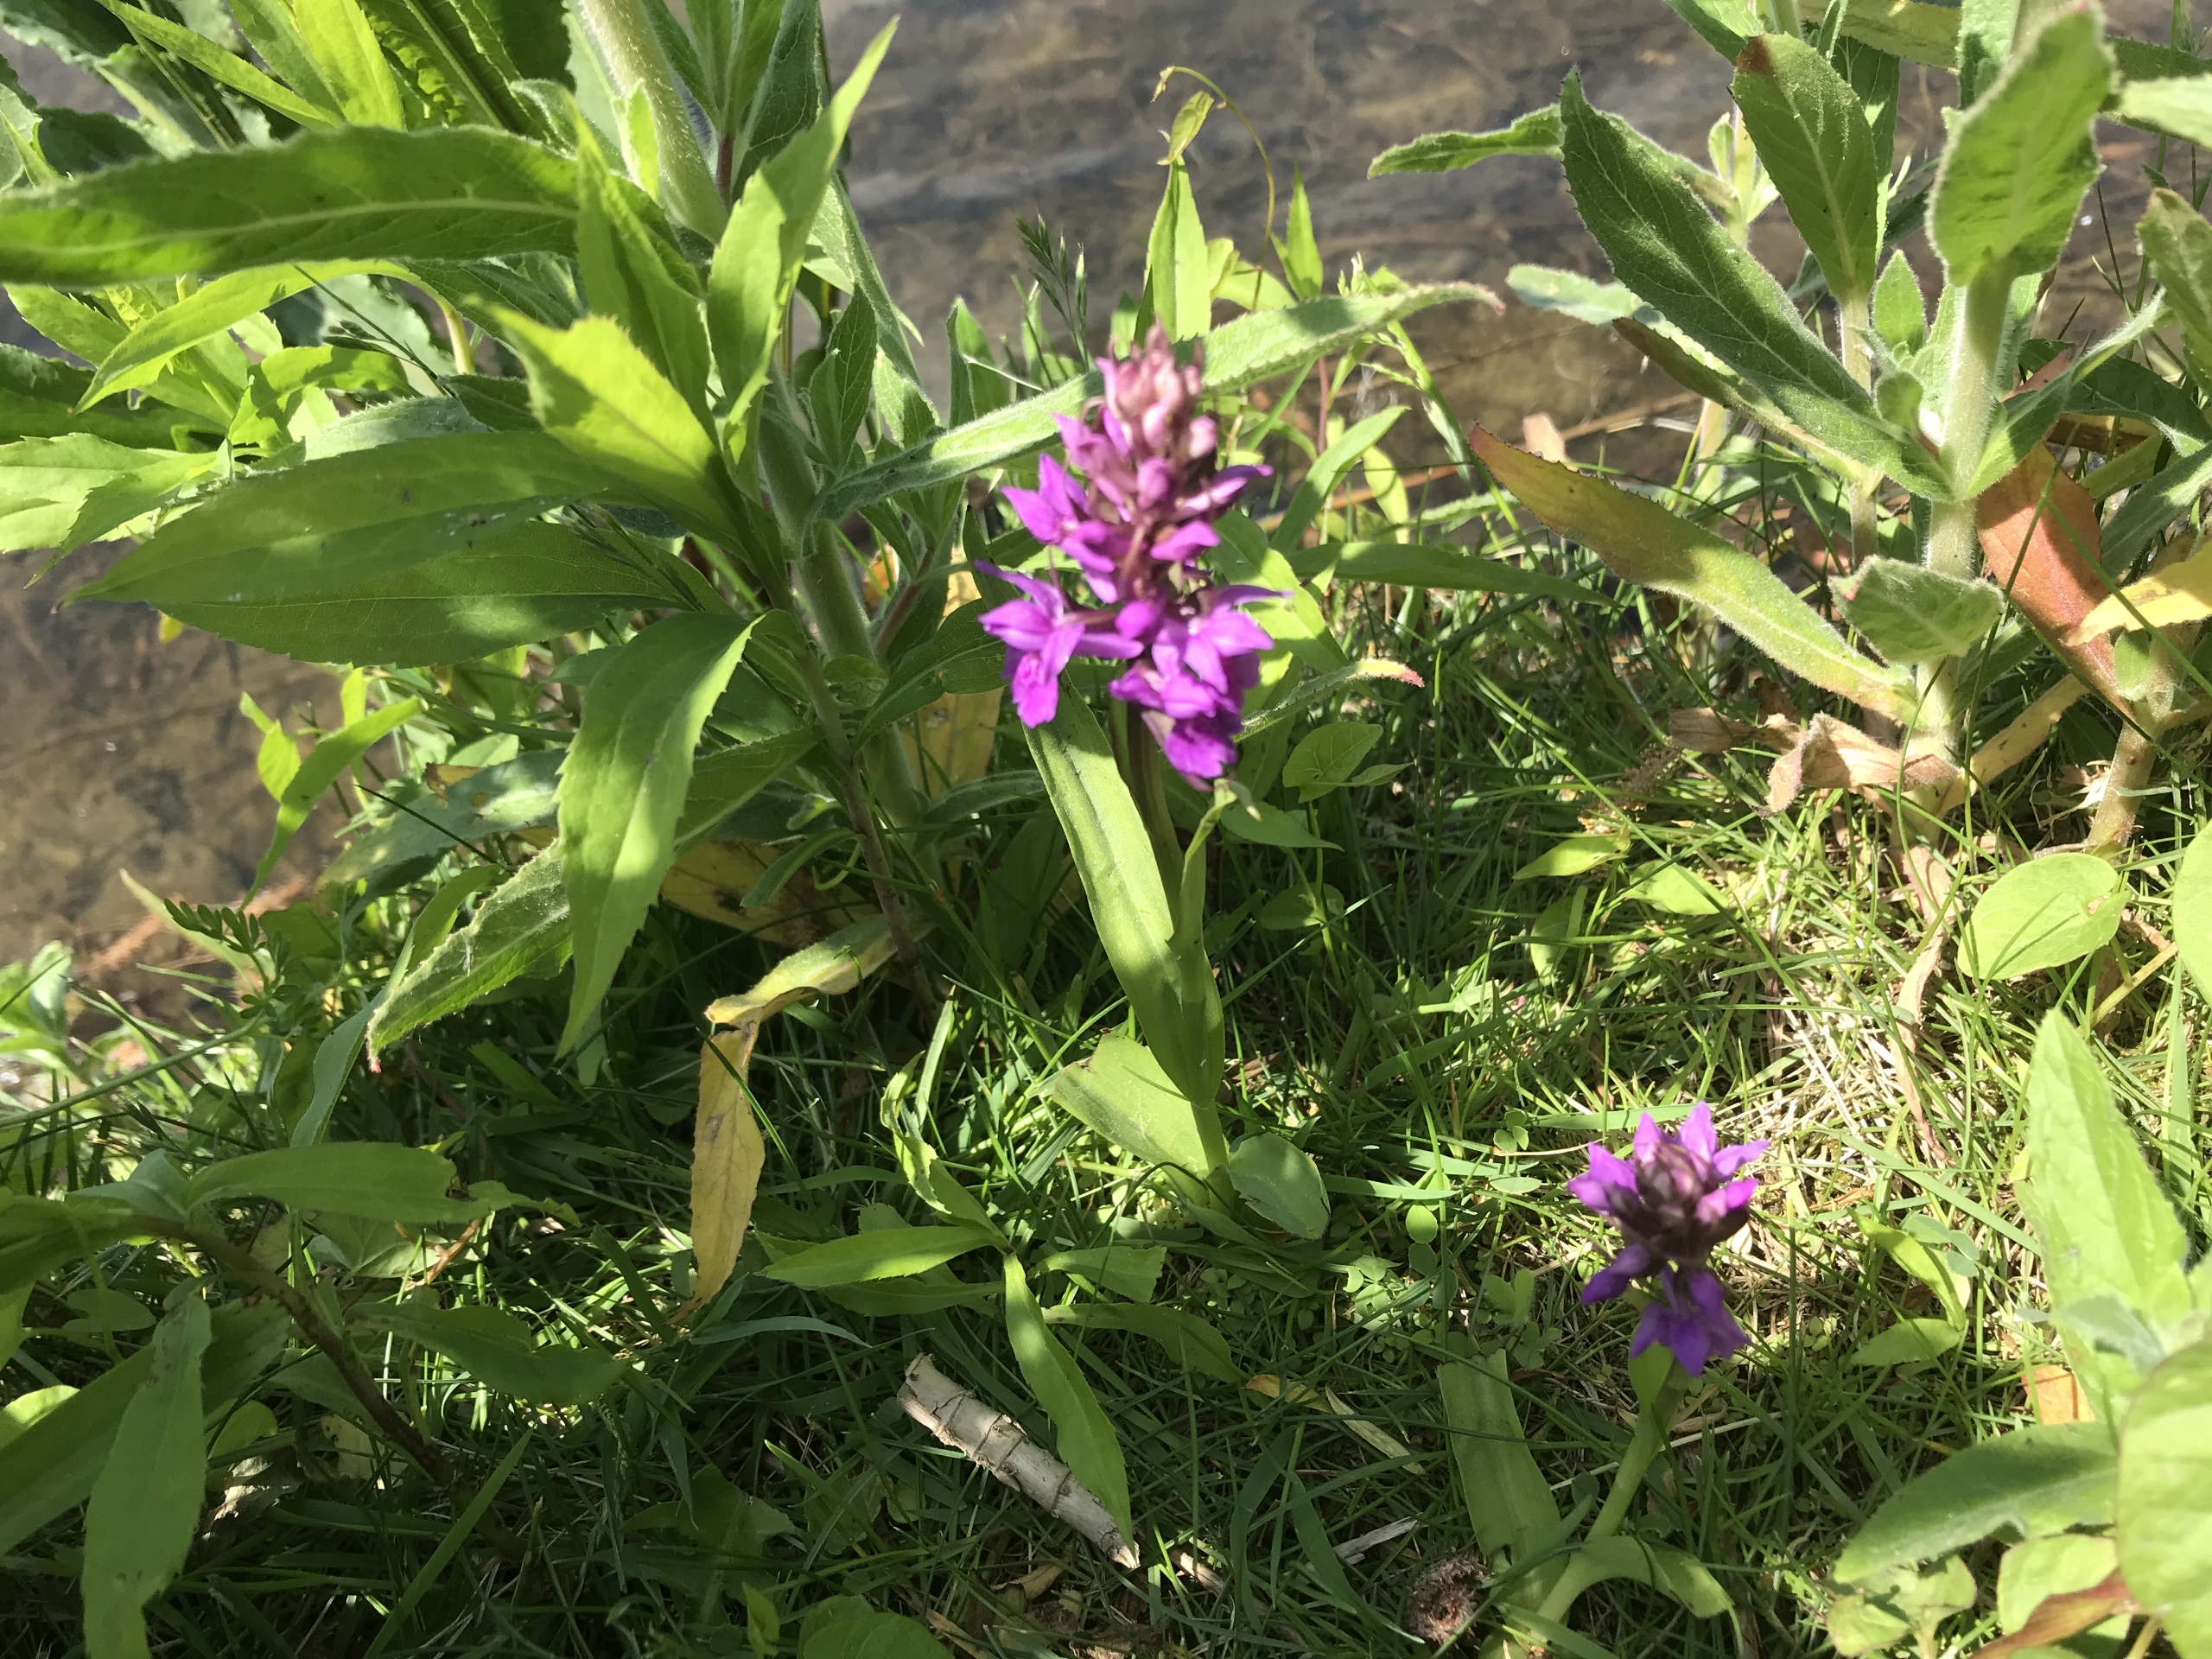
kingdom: Plantae
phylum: Tracheophyta
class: Liliopsida
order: Asparagales
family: Orchidaceae
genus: Dactylorhiza
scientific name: Dactylorhiza majalis
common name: Purpur-gøgeurt
